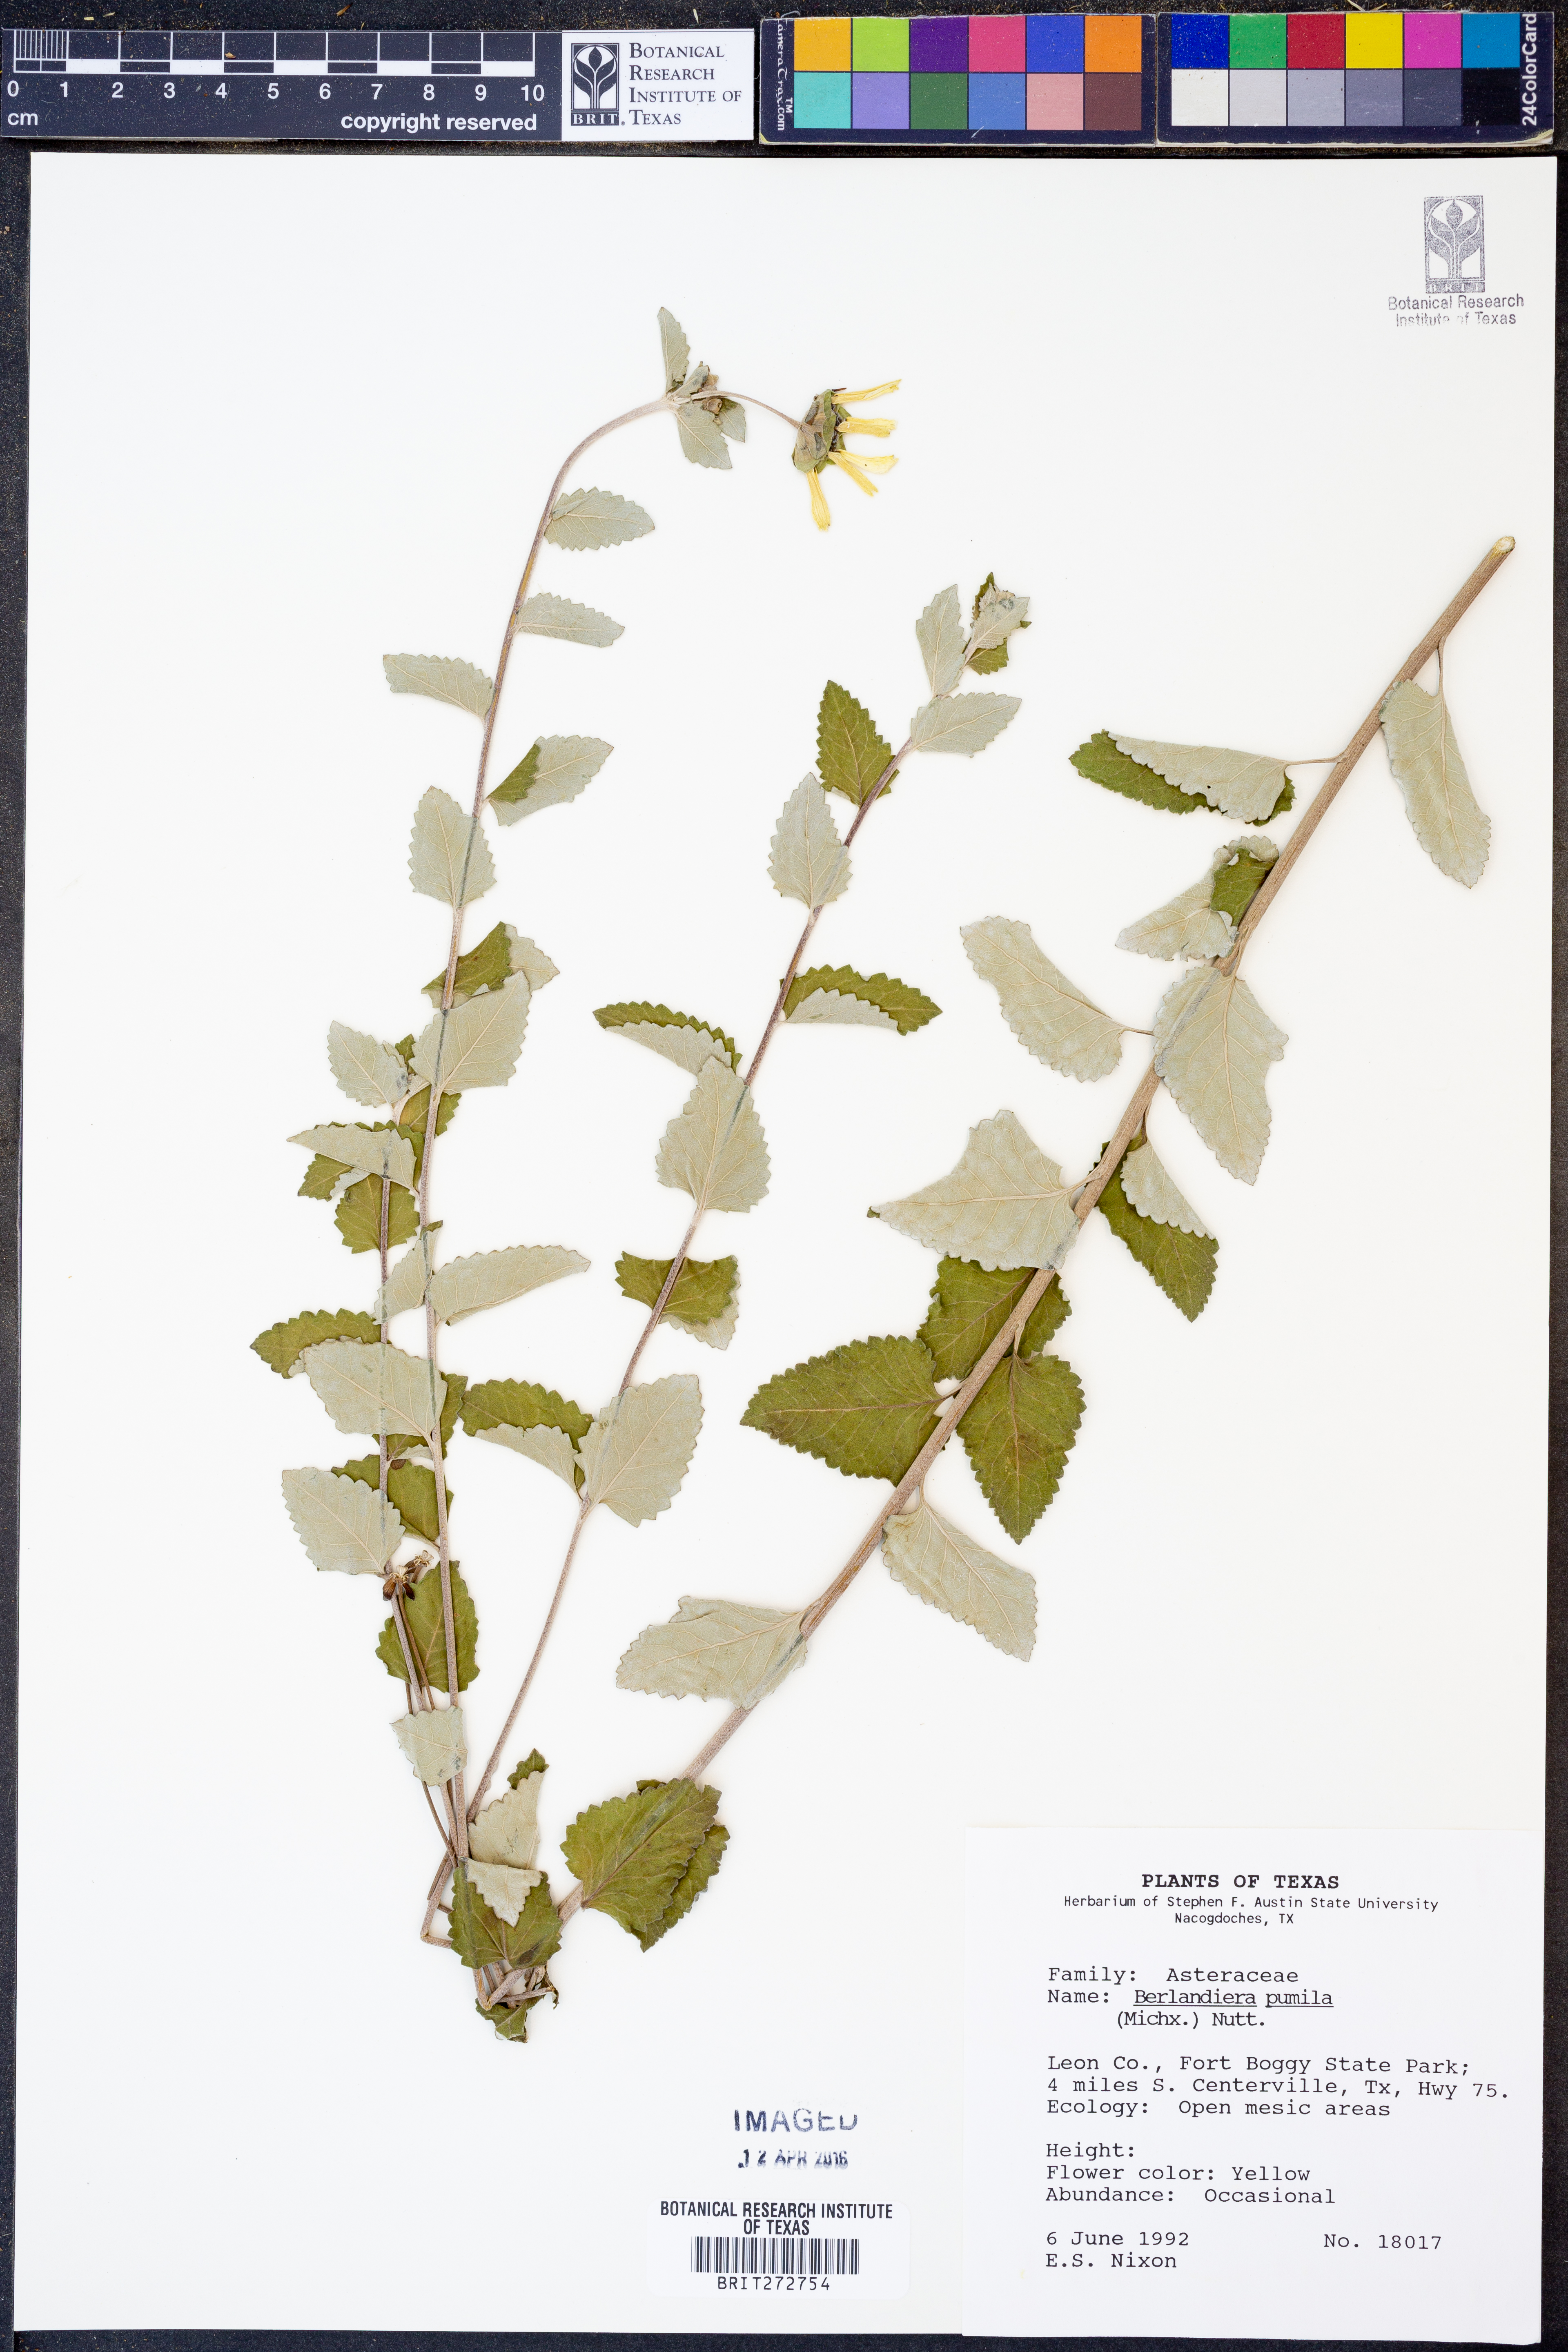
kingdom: Plantae
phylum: Tracheophyta
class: Magnoliopsida
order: Asterales
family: Asteraceae
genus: Berlandiera
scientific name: Berlandiera pumila
